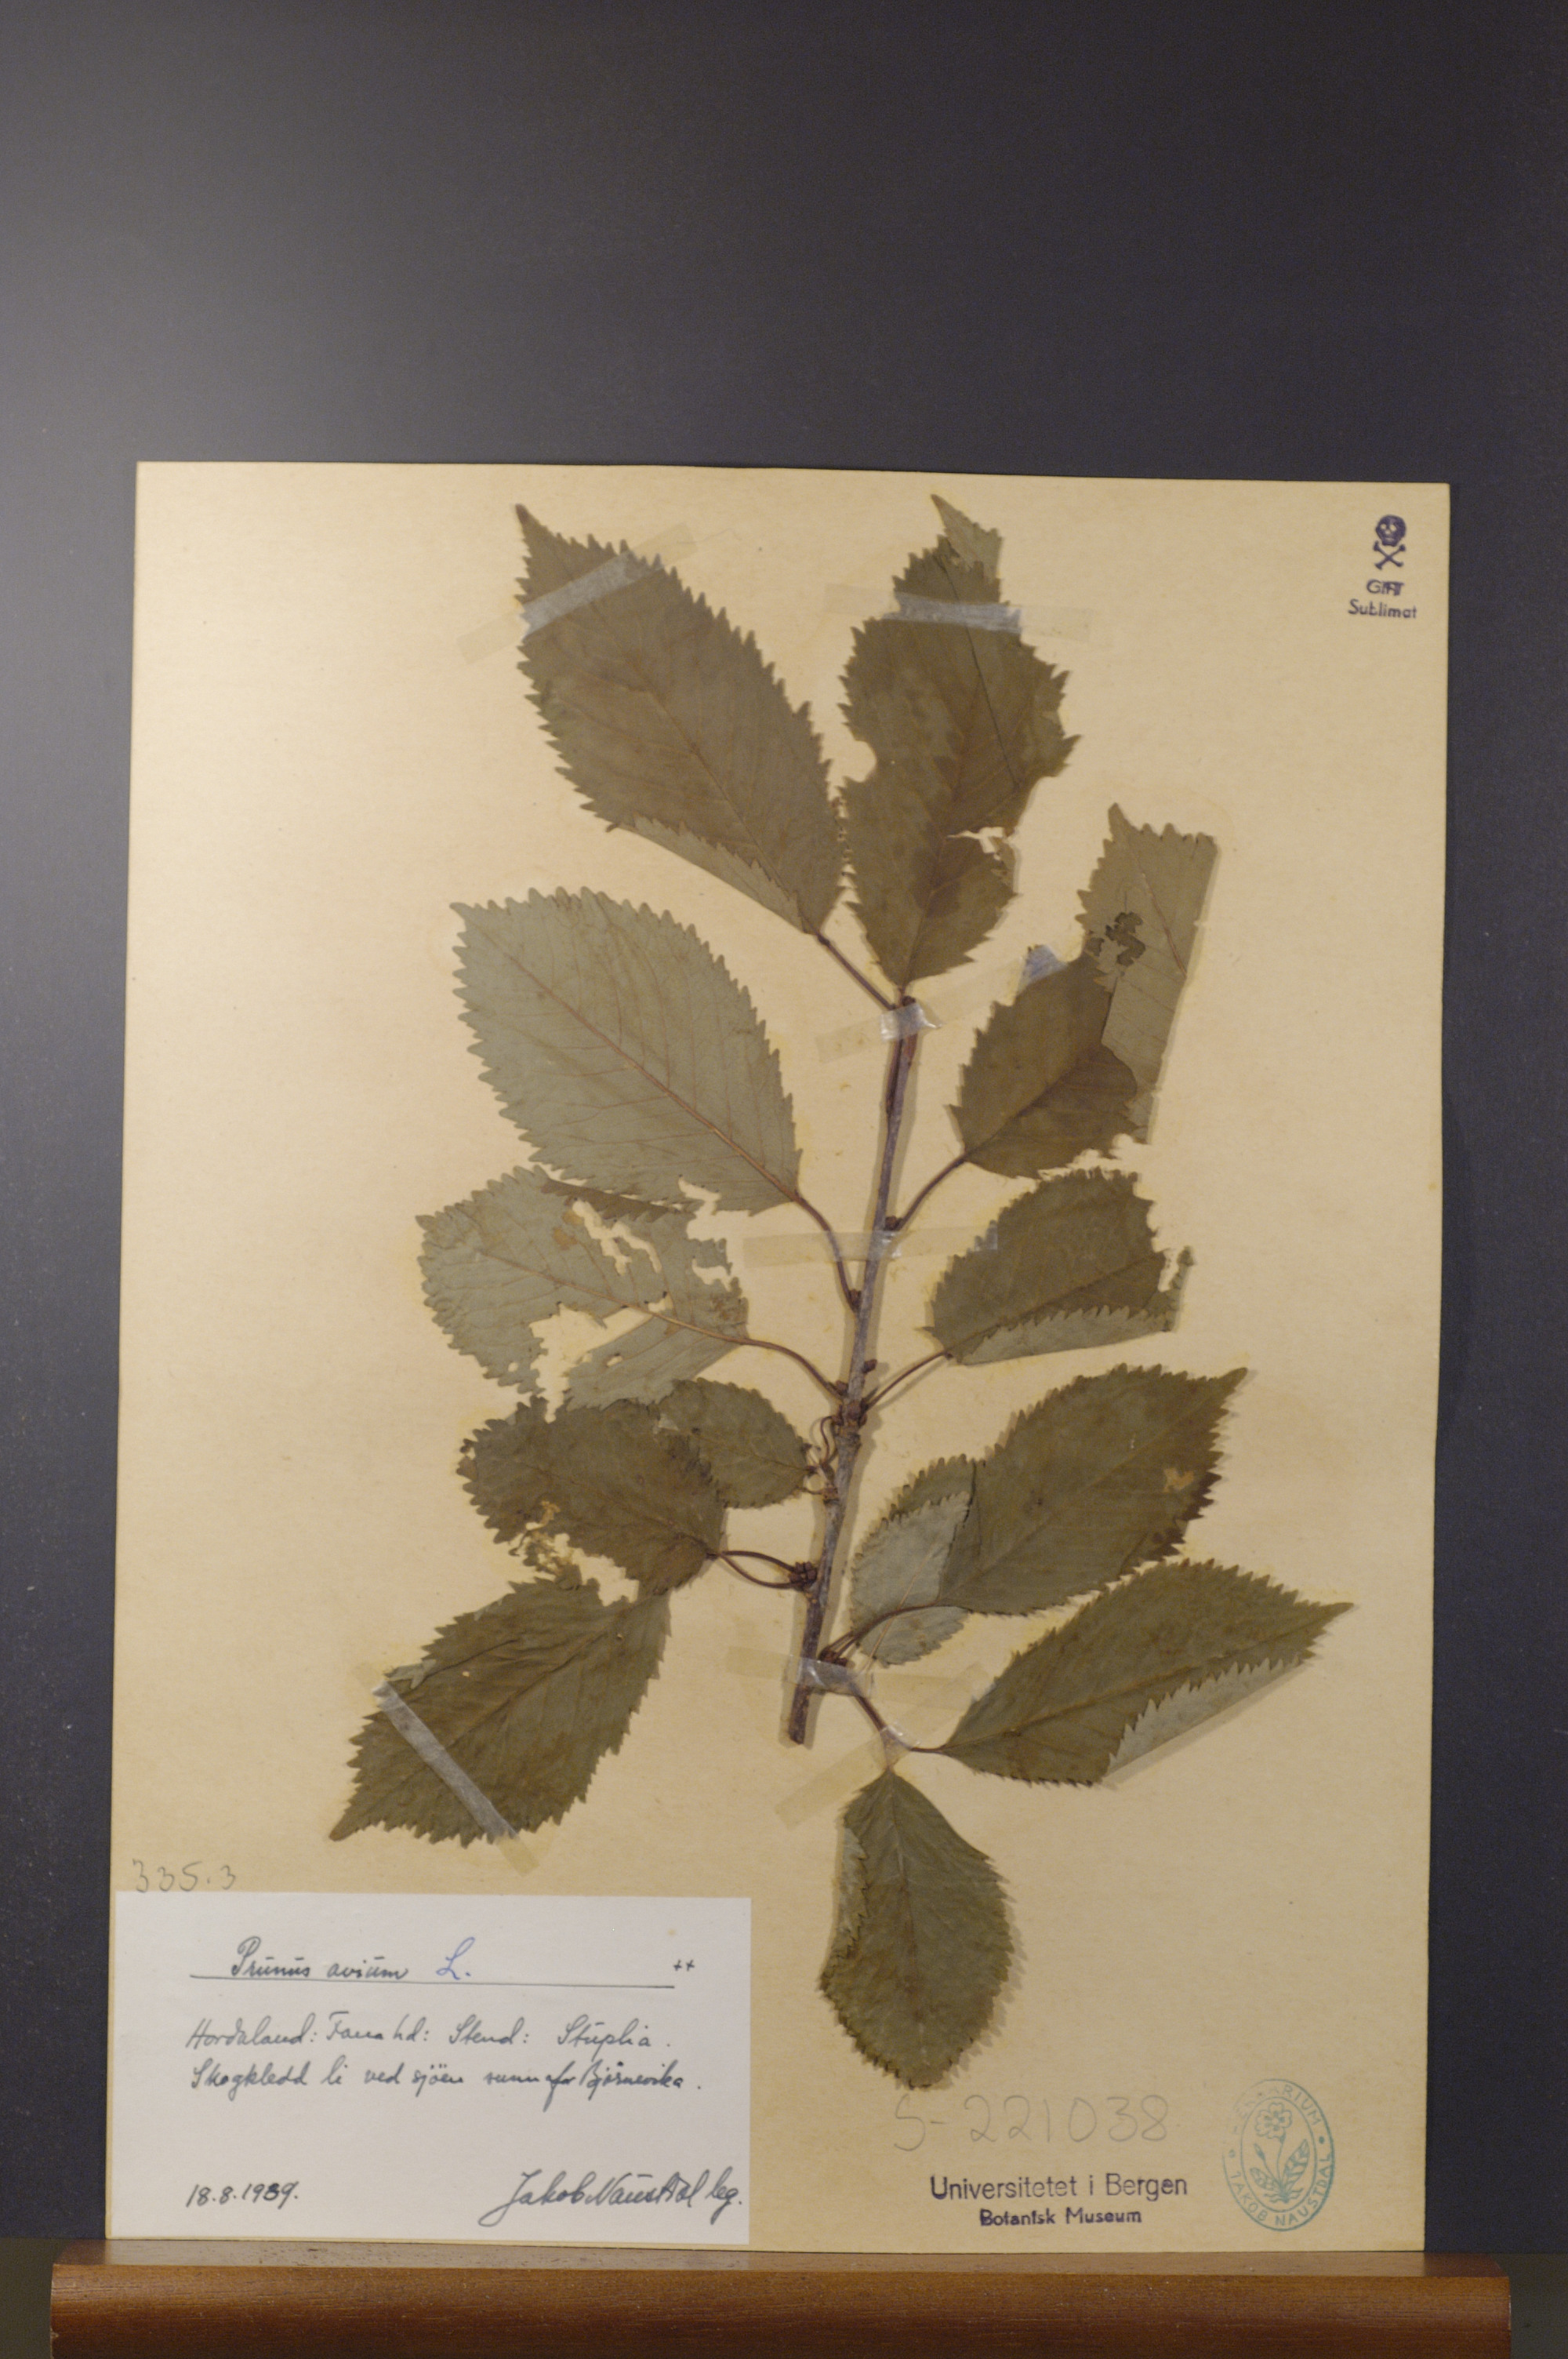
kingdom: Plantae
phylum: Tracheophyta
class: Magnoliopsida
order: Rosales
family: Rosaceae
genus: Prunus
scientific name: Prunus avium
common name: Sweet cherry
